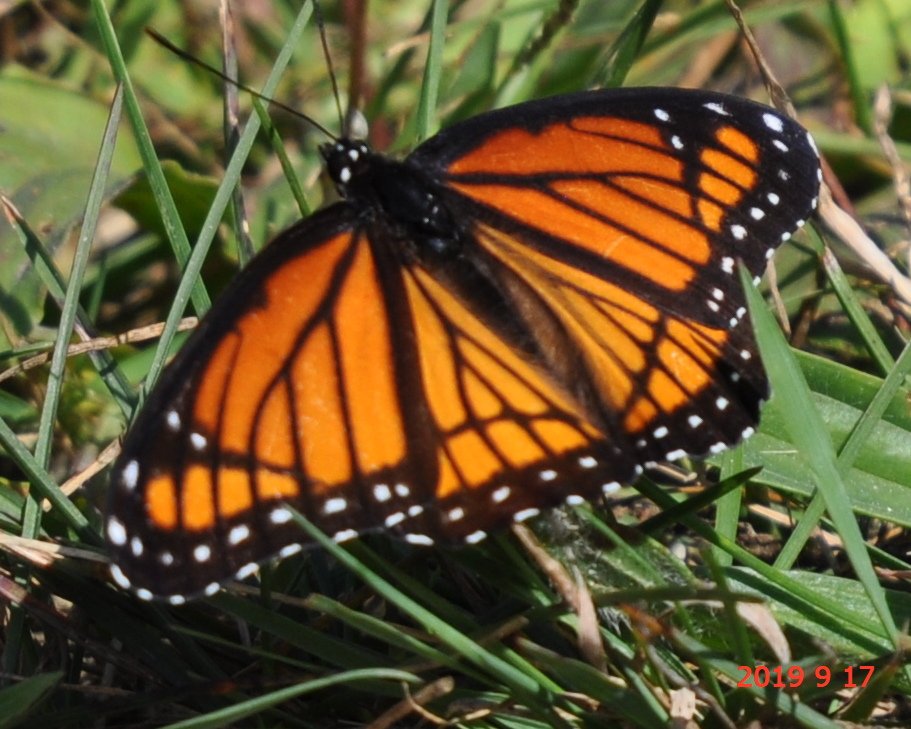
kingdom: Animalia
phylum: Arthropoda
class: Insecta
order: Lepidoptera
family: Nymphalidae
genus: Limenitis
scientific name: Limenitis archippus
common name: Viceroy
